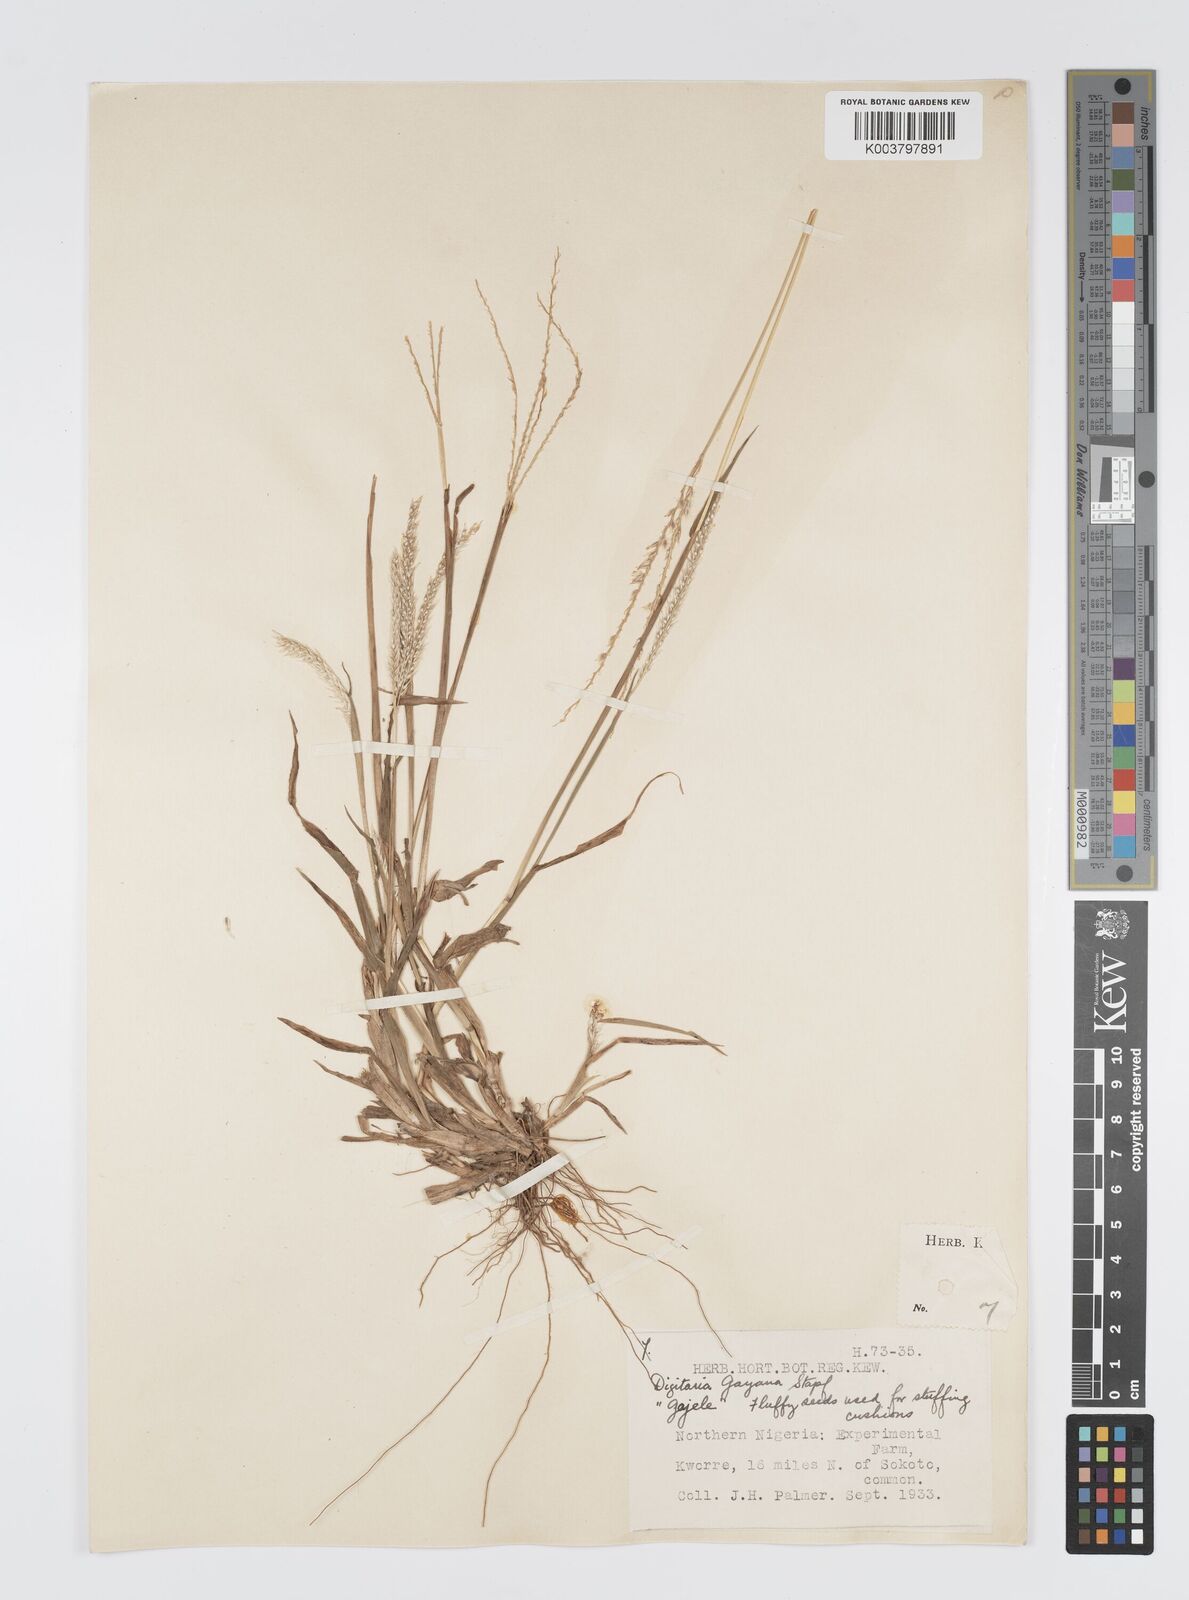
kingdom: Plantae
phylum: Tracheophyta
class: Liliopsida
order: Poales
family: Poaceae
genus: Digitaria
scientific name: Digitaria gayana
